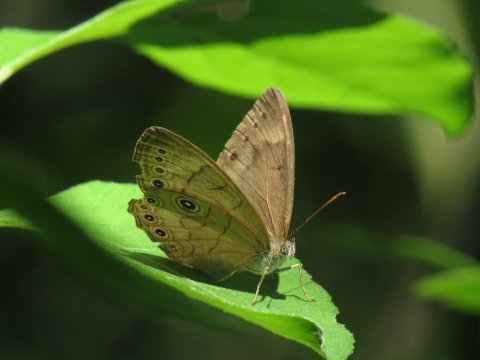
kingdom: Animalia
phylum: Arthropoda
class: Insecta
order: Lepidoptera
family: Nymphalidae
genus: Lethe
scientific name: Lethe eurydice
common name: Appalachian Eyed Brown
